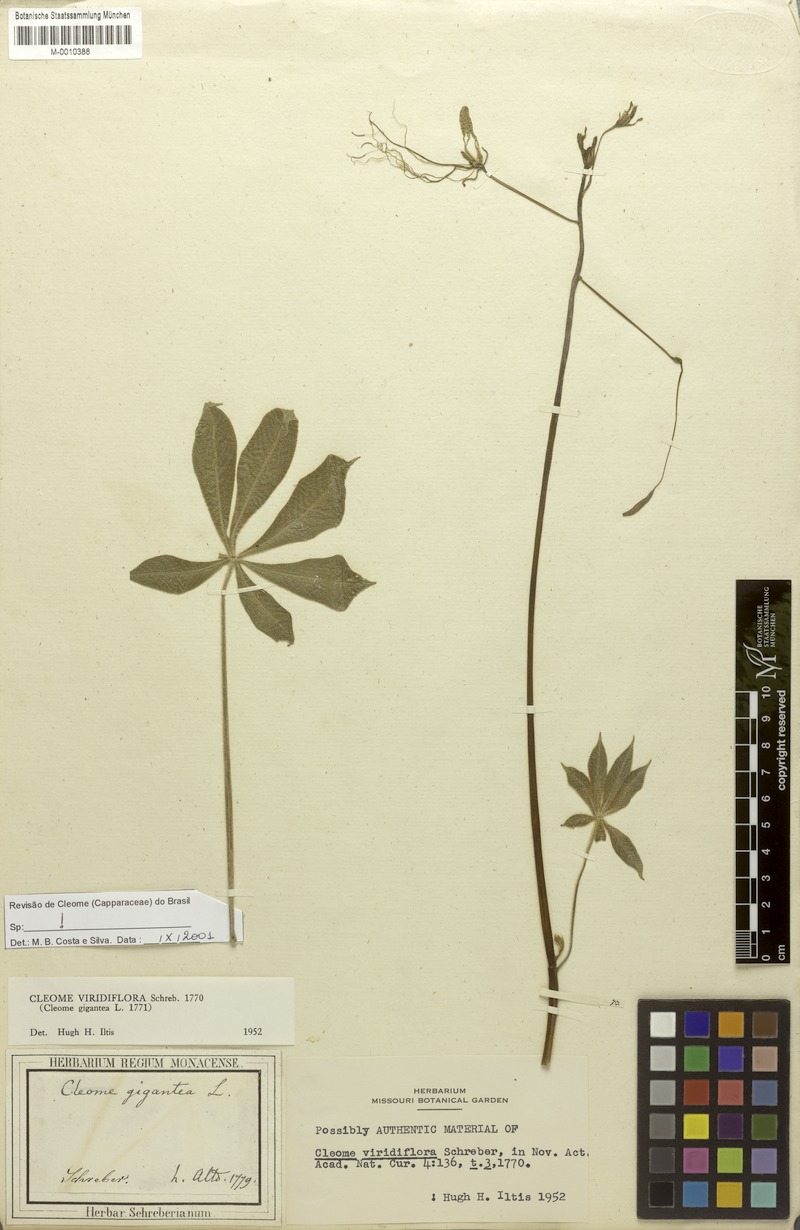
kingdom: Plantae
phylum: Tracheophyta
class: Magnoliopsida
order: Brassicales
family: Cleomaceae
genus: Melidiscus
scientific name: Melidiscus gigantea
